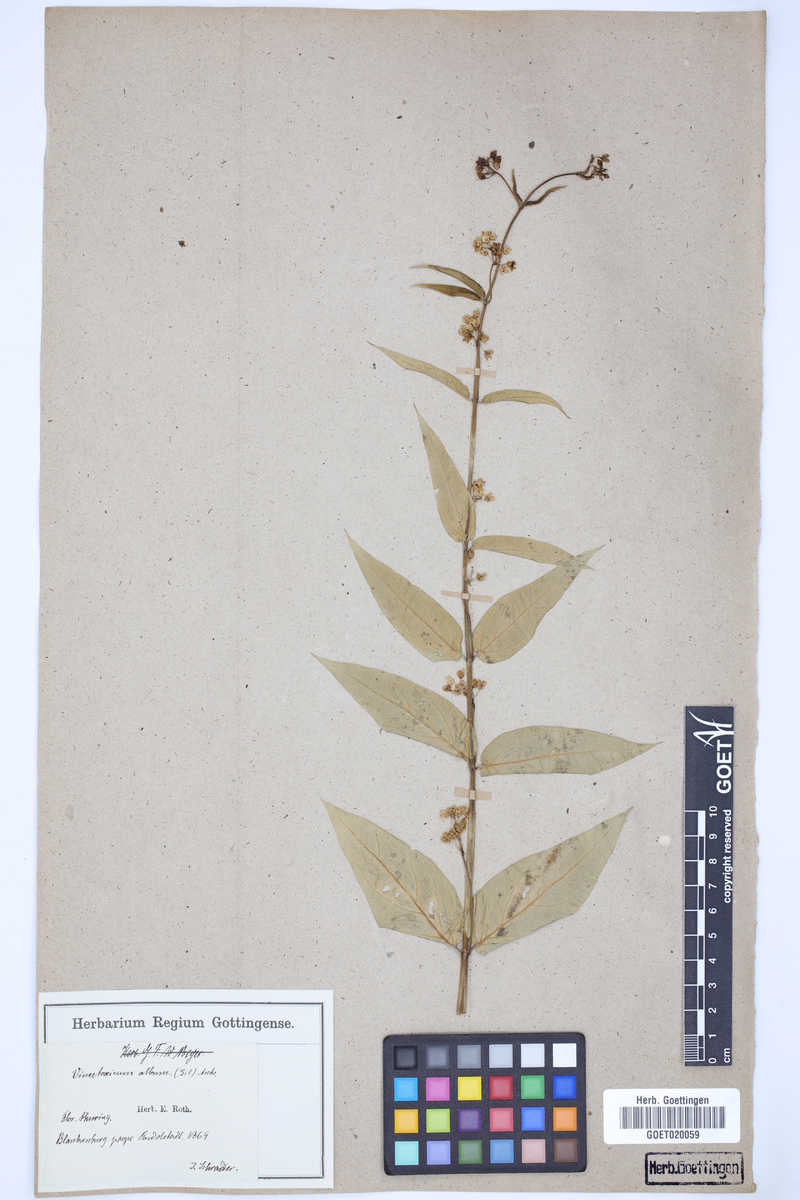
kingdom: Plantae
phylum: Tracheophyta
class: Magnoliopsida
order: Gentianales
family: Apocynaceae
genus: Vincetoxicum
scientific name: Vincetoxicum hirundinaria
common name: White swallowwort
